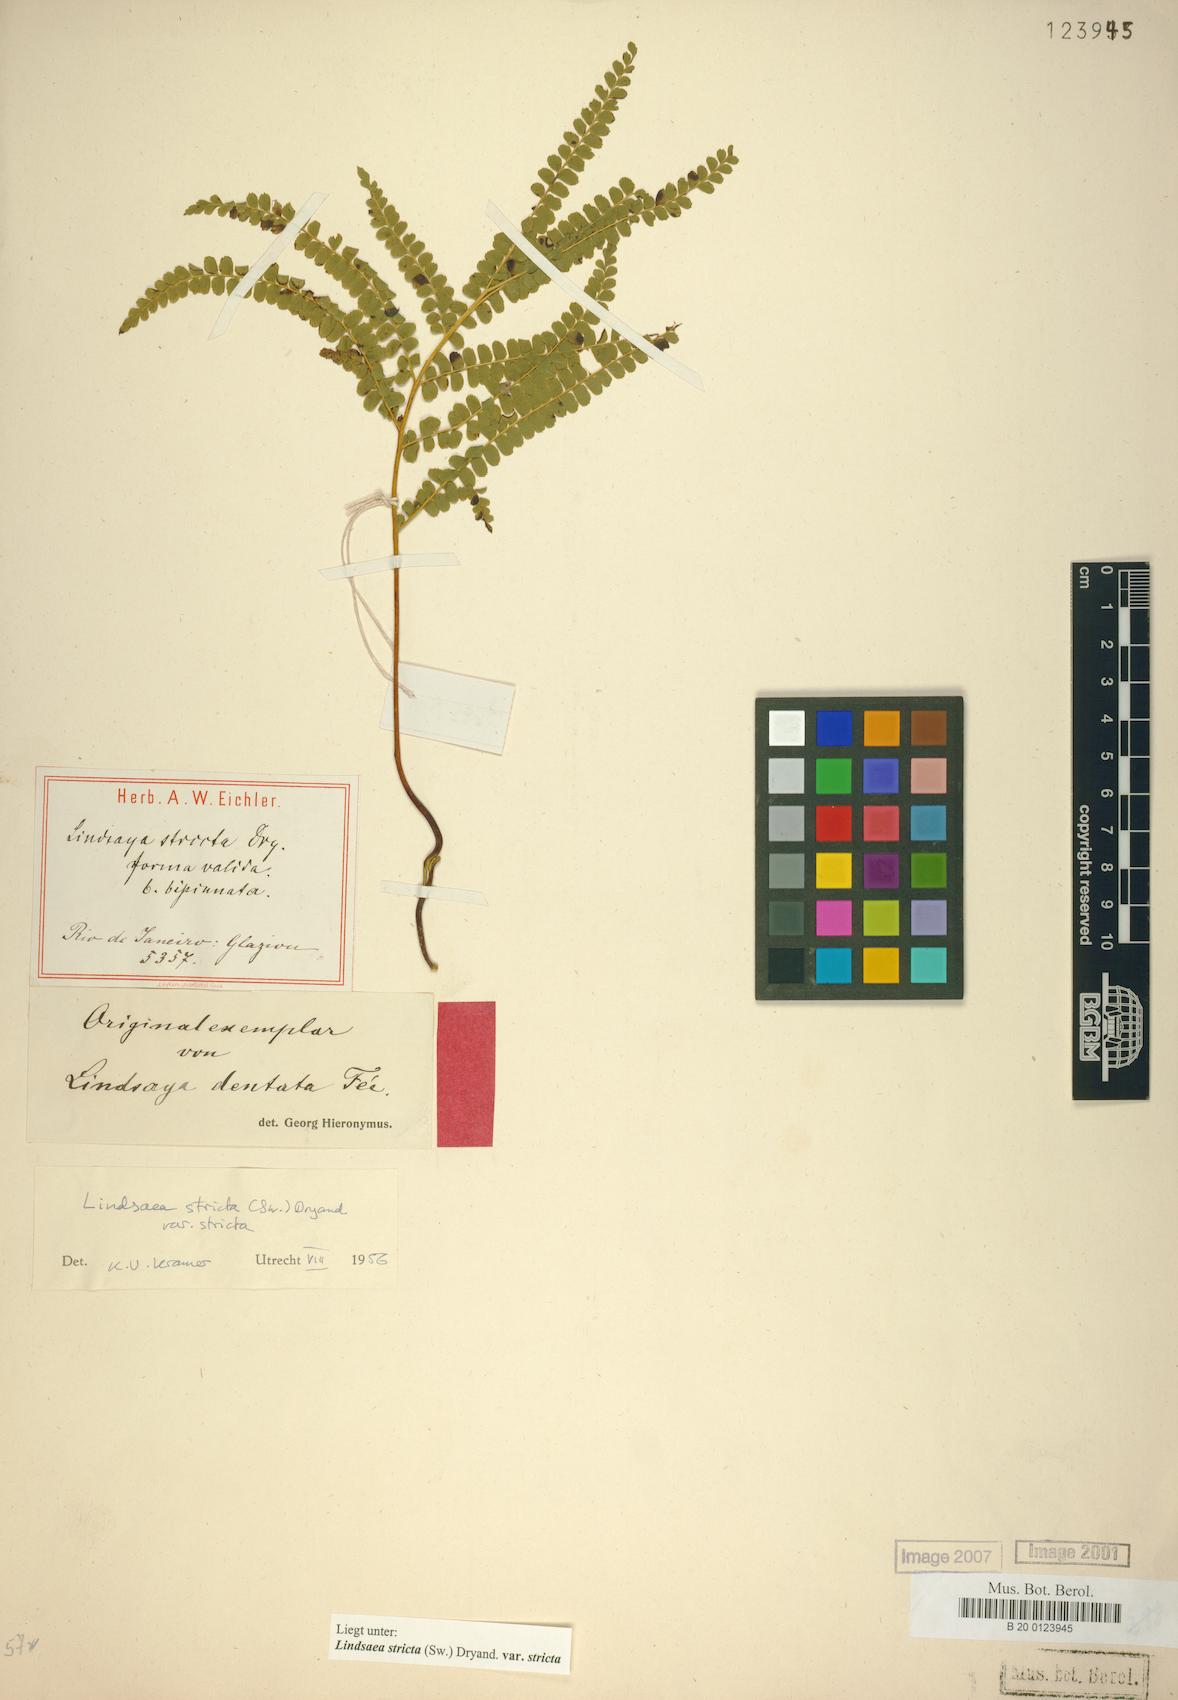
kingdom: Plantae
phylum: Tracheophyta
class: Polypodiopsida
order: Polypodiales
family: Lindsaeaceae
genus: Lindsaea
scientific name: Lindsaea stricta
